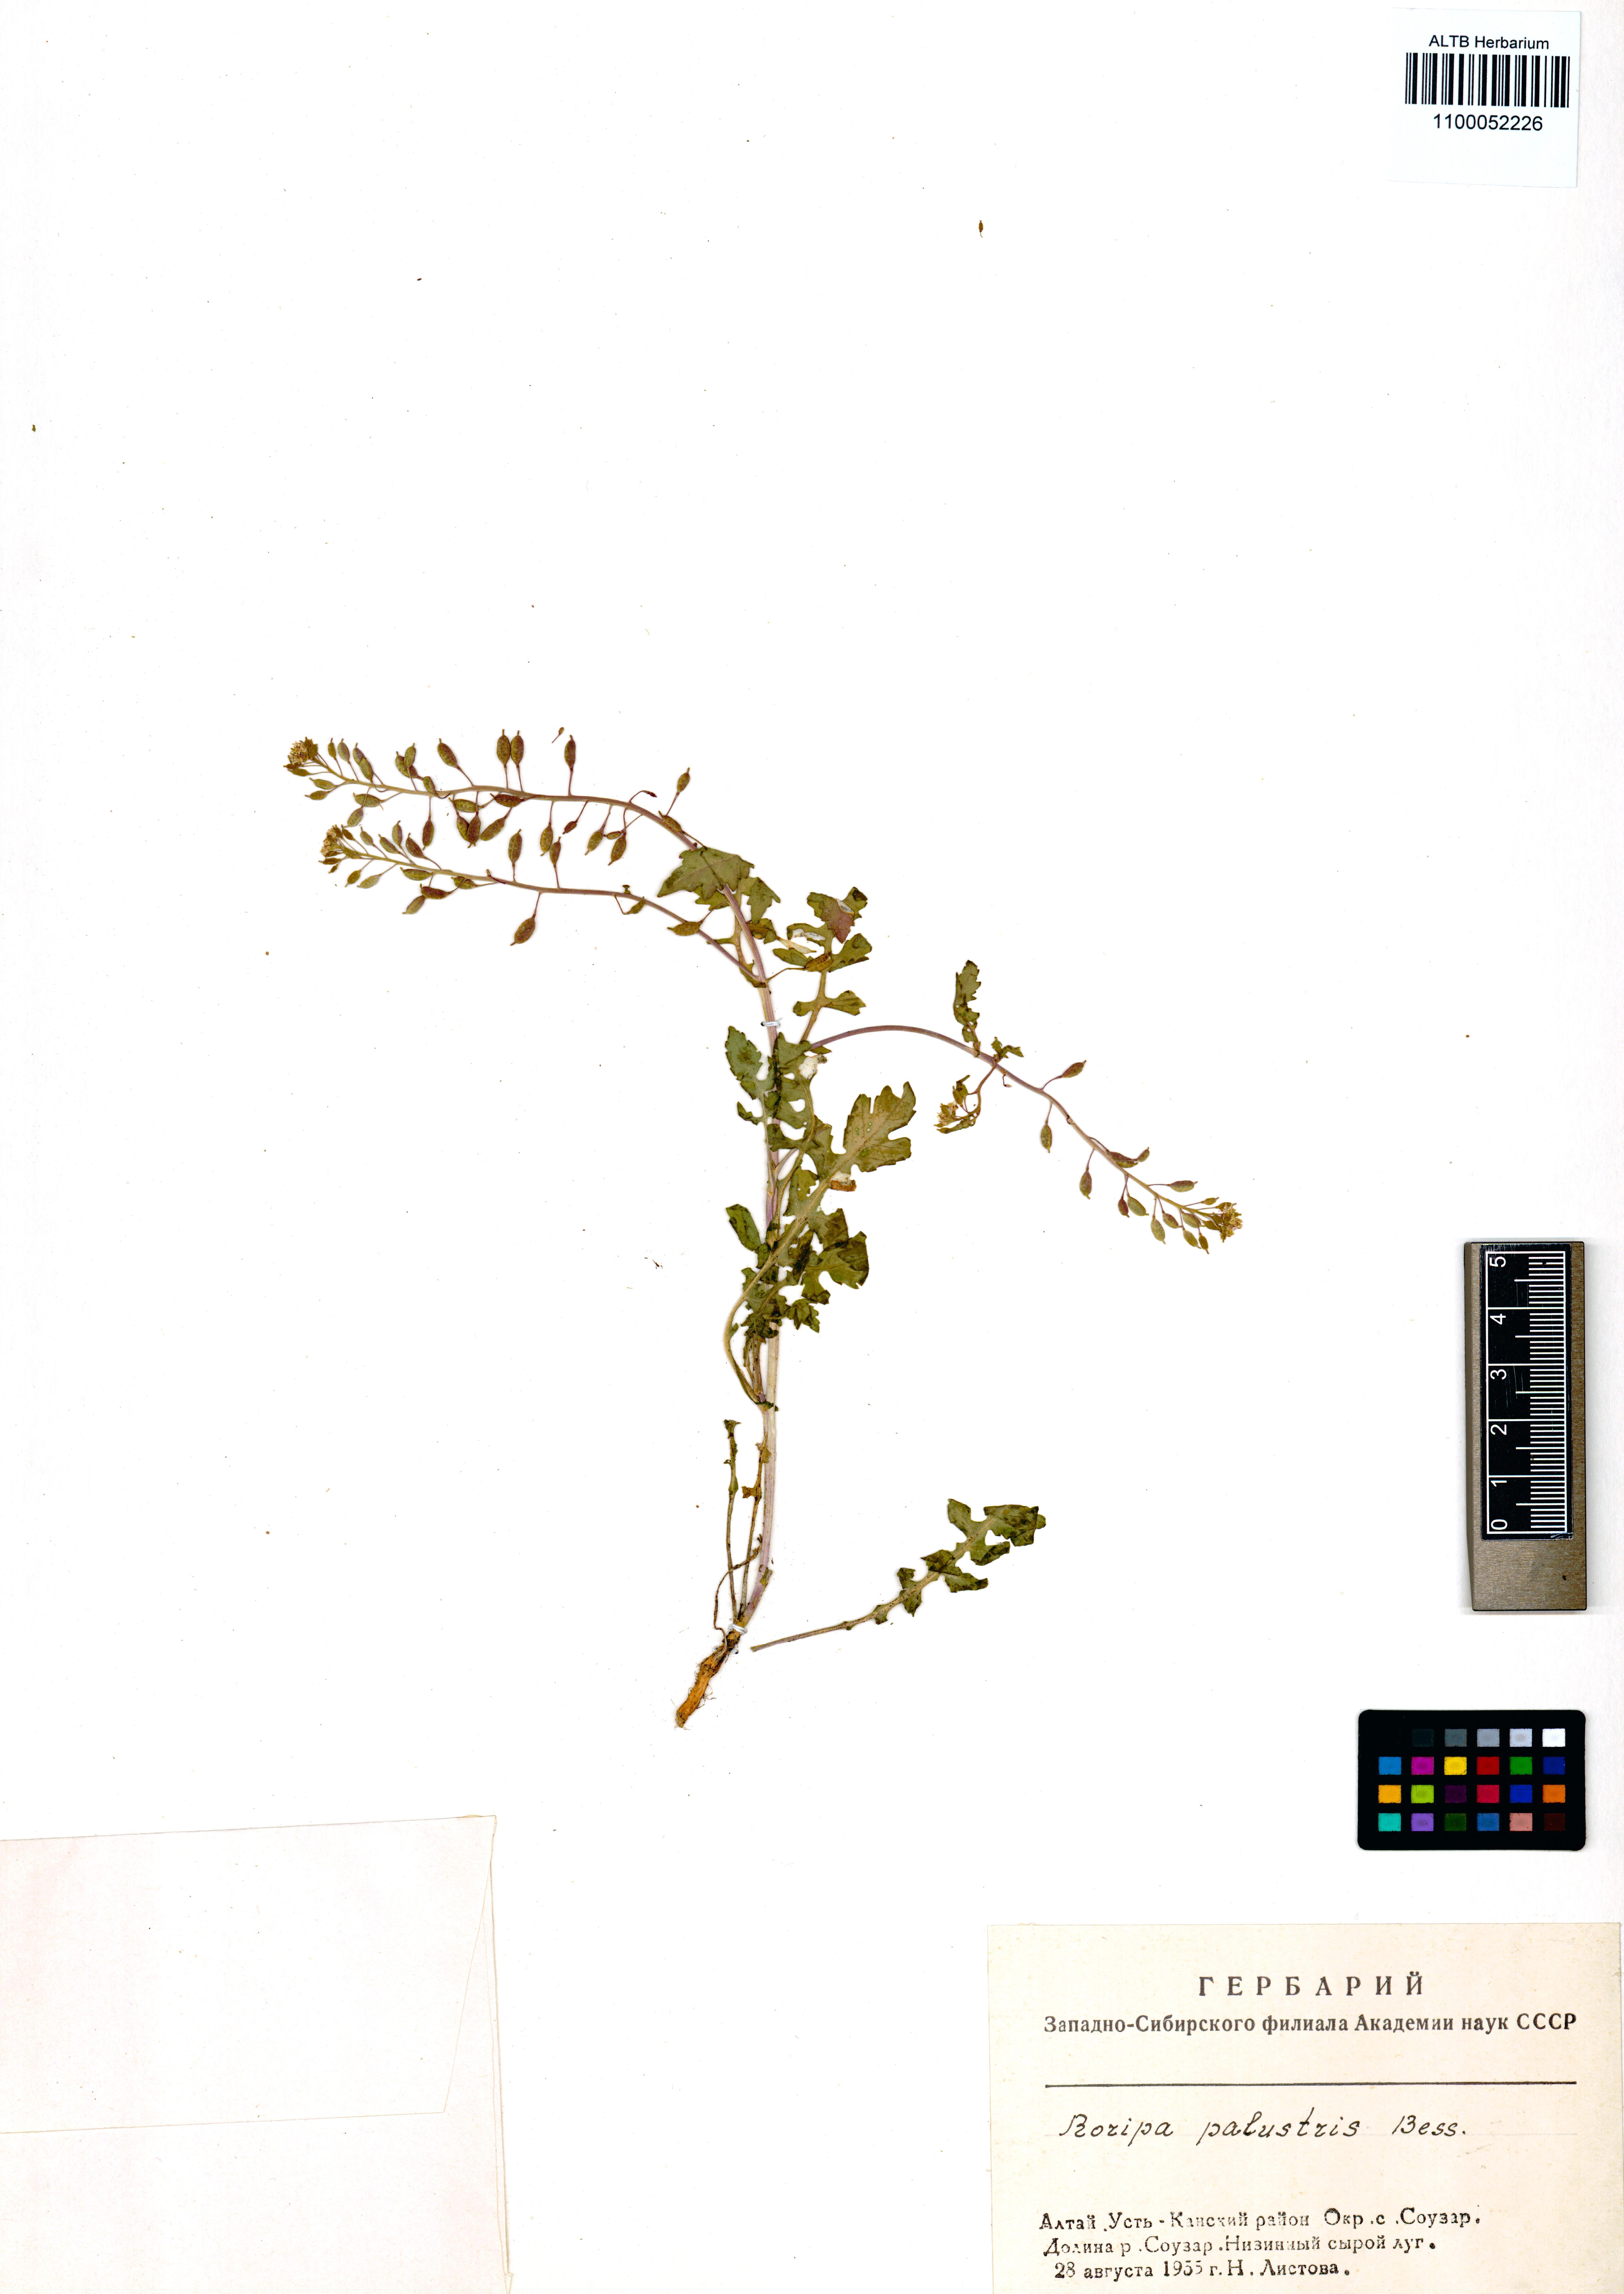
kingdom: Plantae
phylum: Tracheophyta
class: Magnoliopsida
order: Brassicales
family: Brassicaceae
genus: Rorippa
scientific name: Rorippa palustris
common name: Marsh yellow-cress
